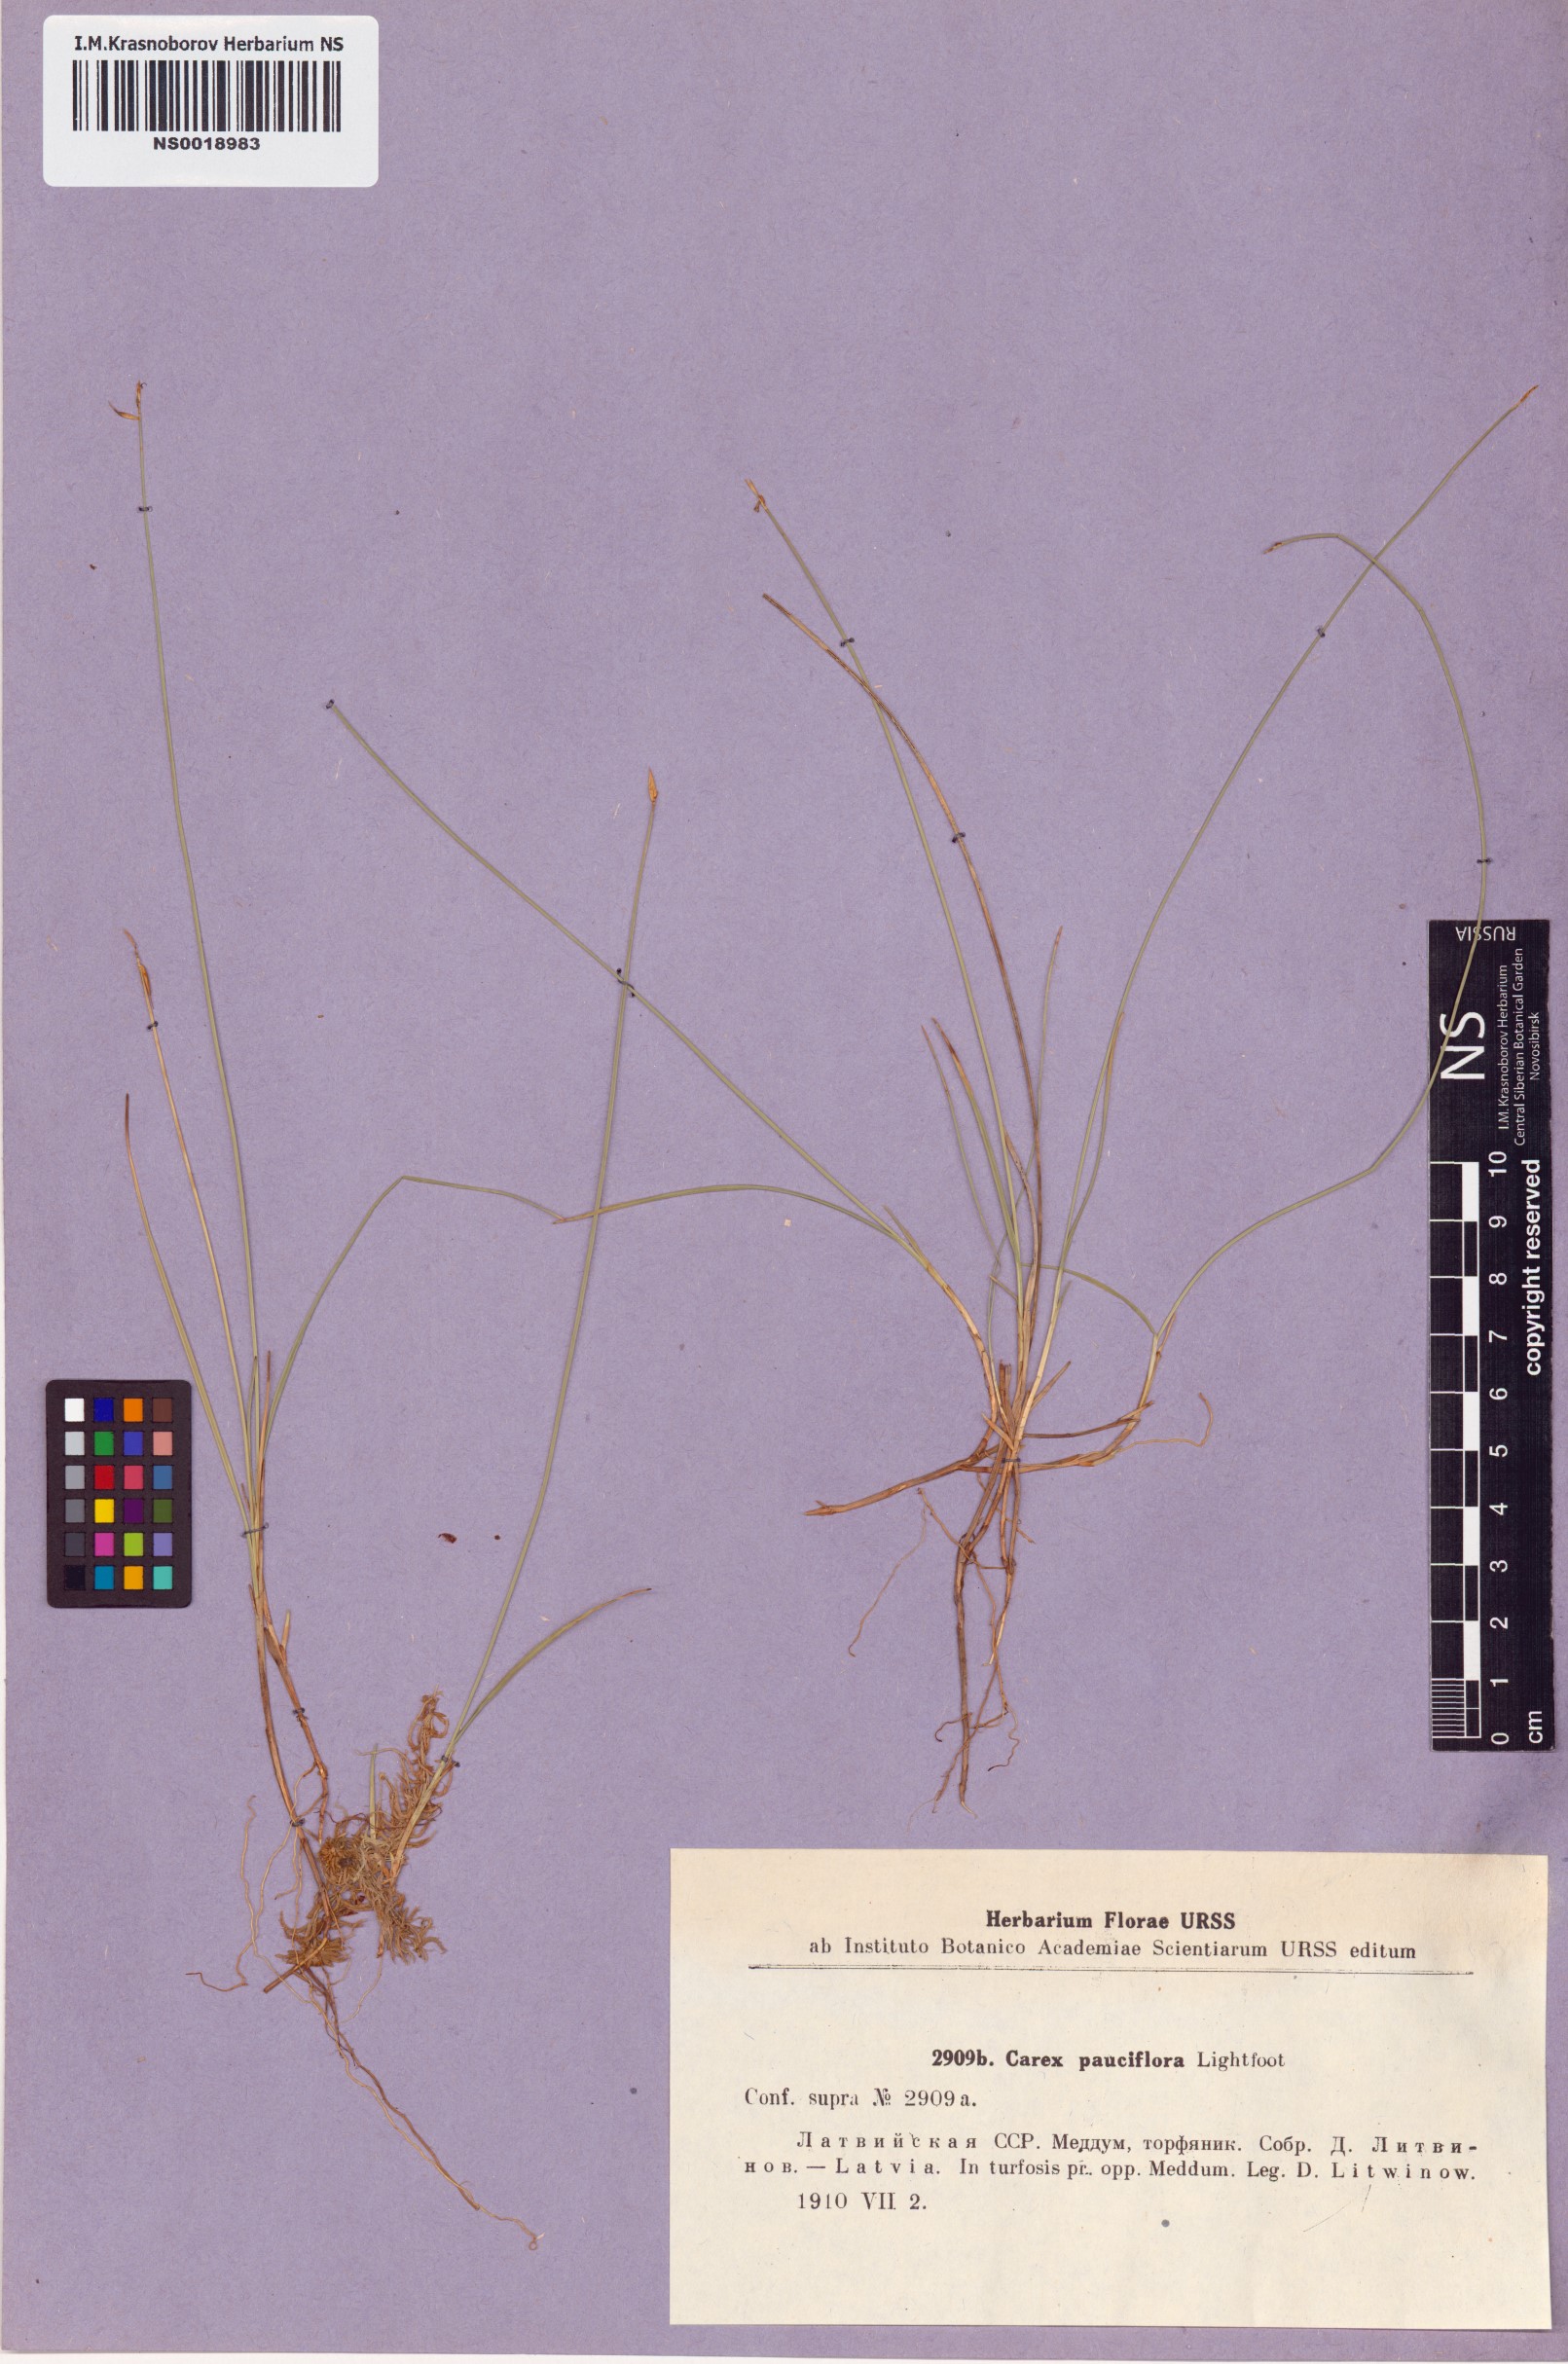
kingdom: Plantae
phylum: Tracheophyta
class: Liliopsida
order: Poales
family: Cyperaceae
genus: Carex
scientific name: Carex pauciflora
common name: Few-flowered sedge
